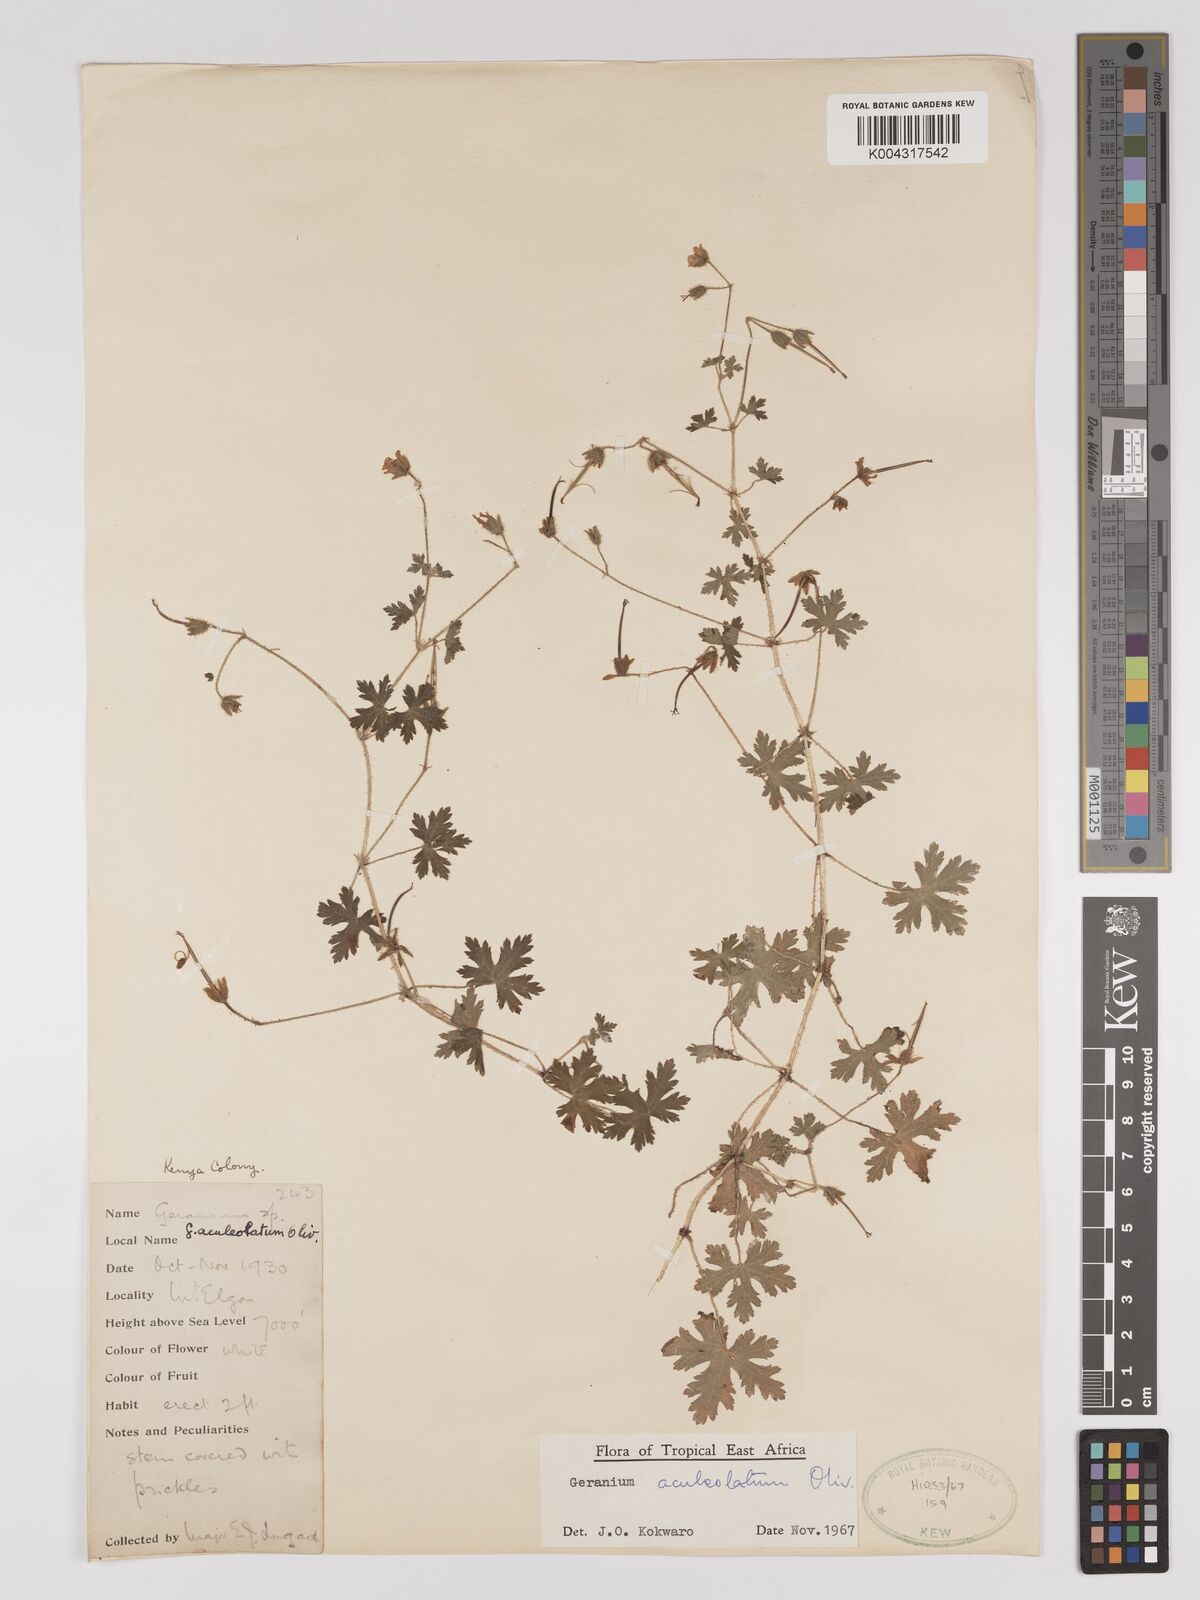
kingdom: Plantae
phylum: Tracheophyta
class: Magnoliopsida
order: Geraniales
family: Geraniaceae
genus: Geranium
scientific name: Geranium aculeolatum
